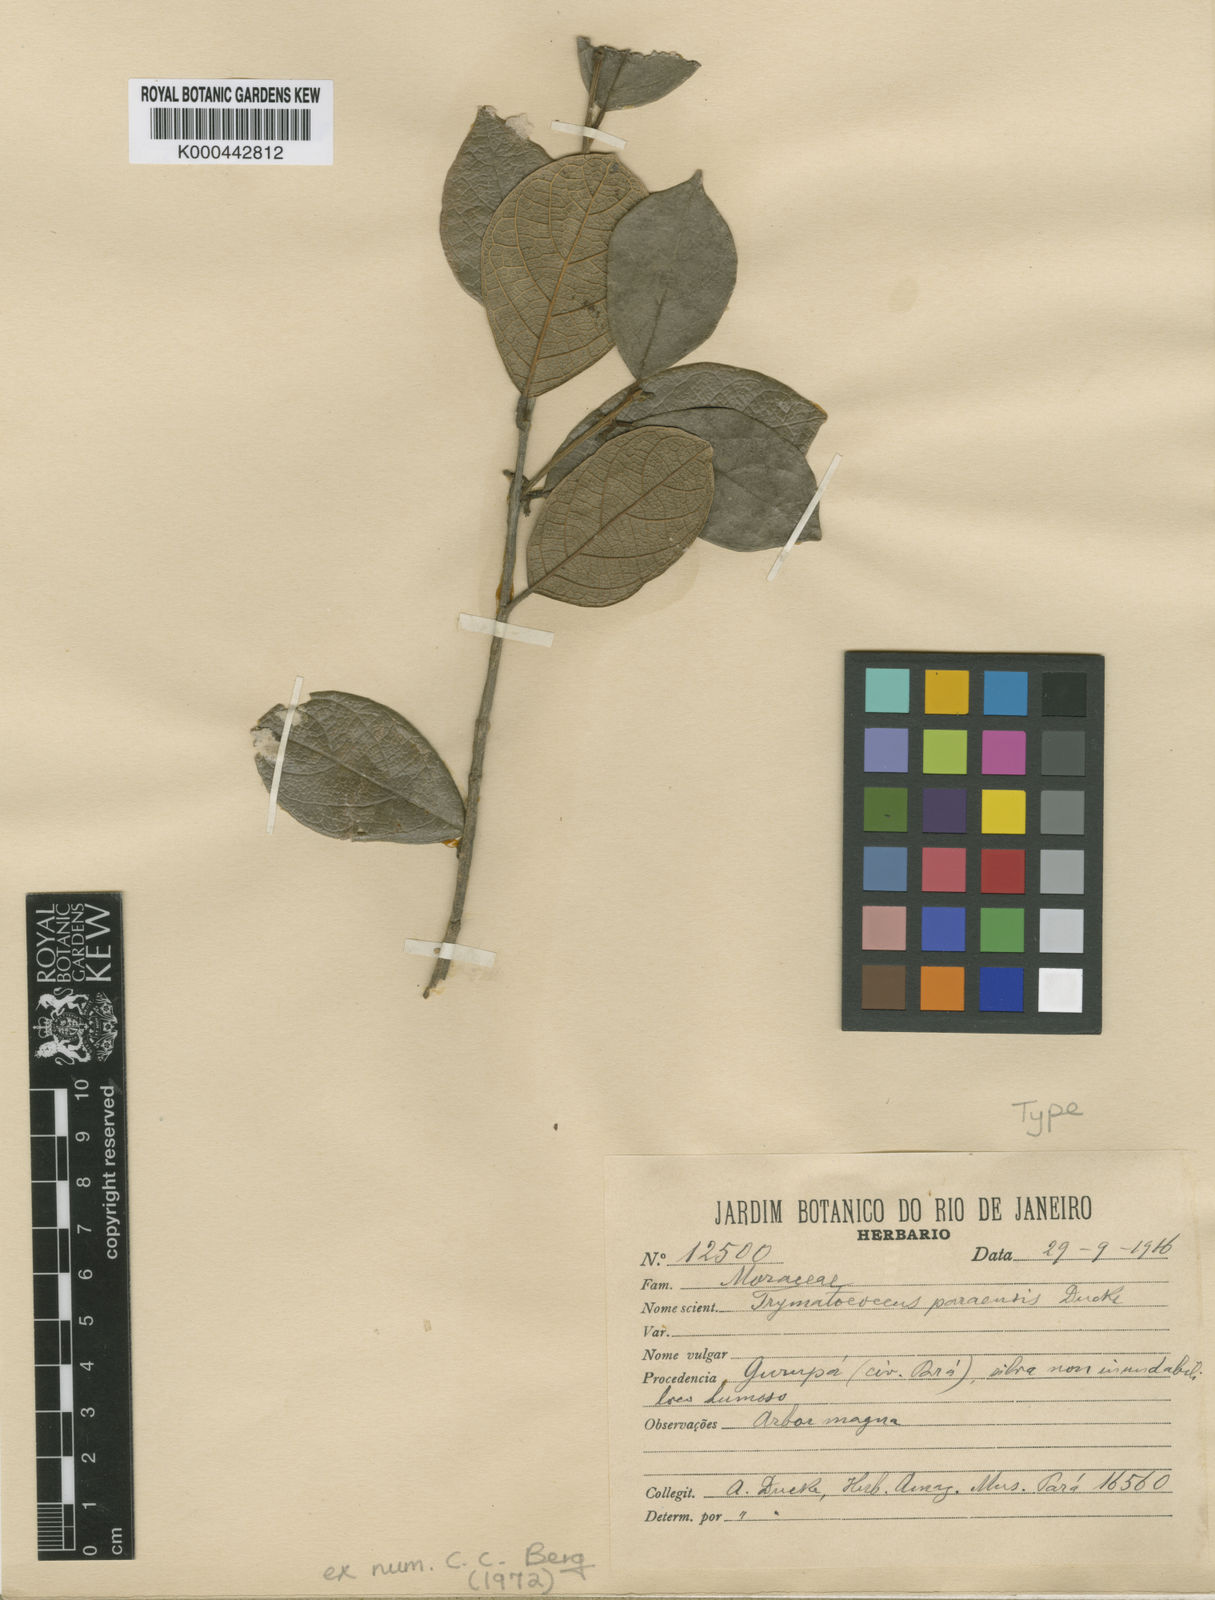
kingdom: Plantae
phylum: Tracheophyta
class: Magnoliopsida
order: Rosales
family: Moraceae
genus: Brosimum
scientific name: Brosimum amazonicum
